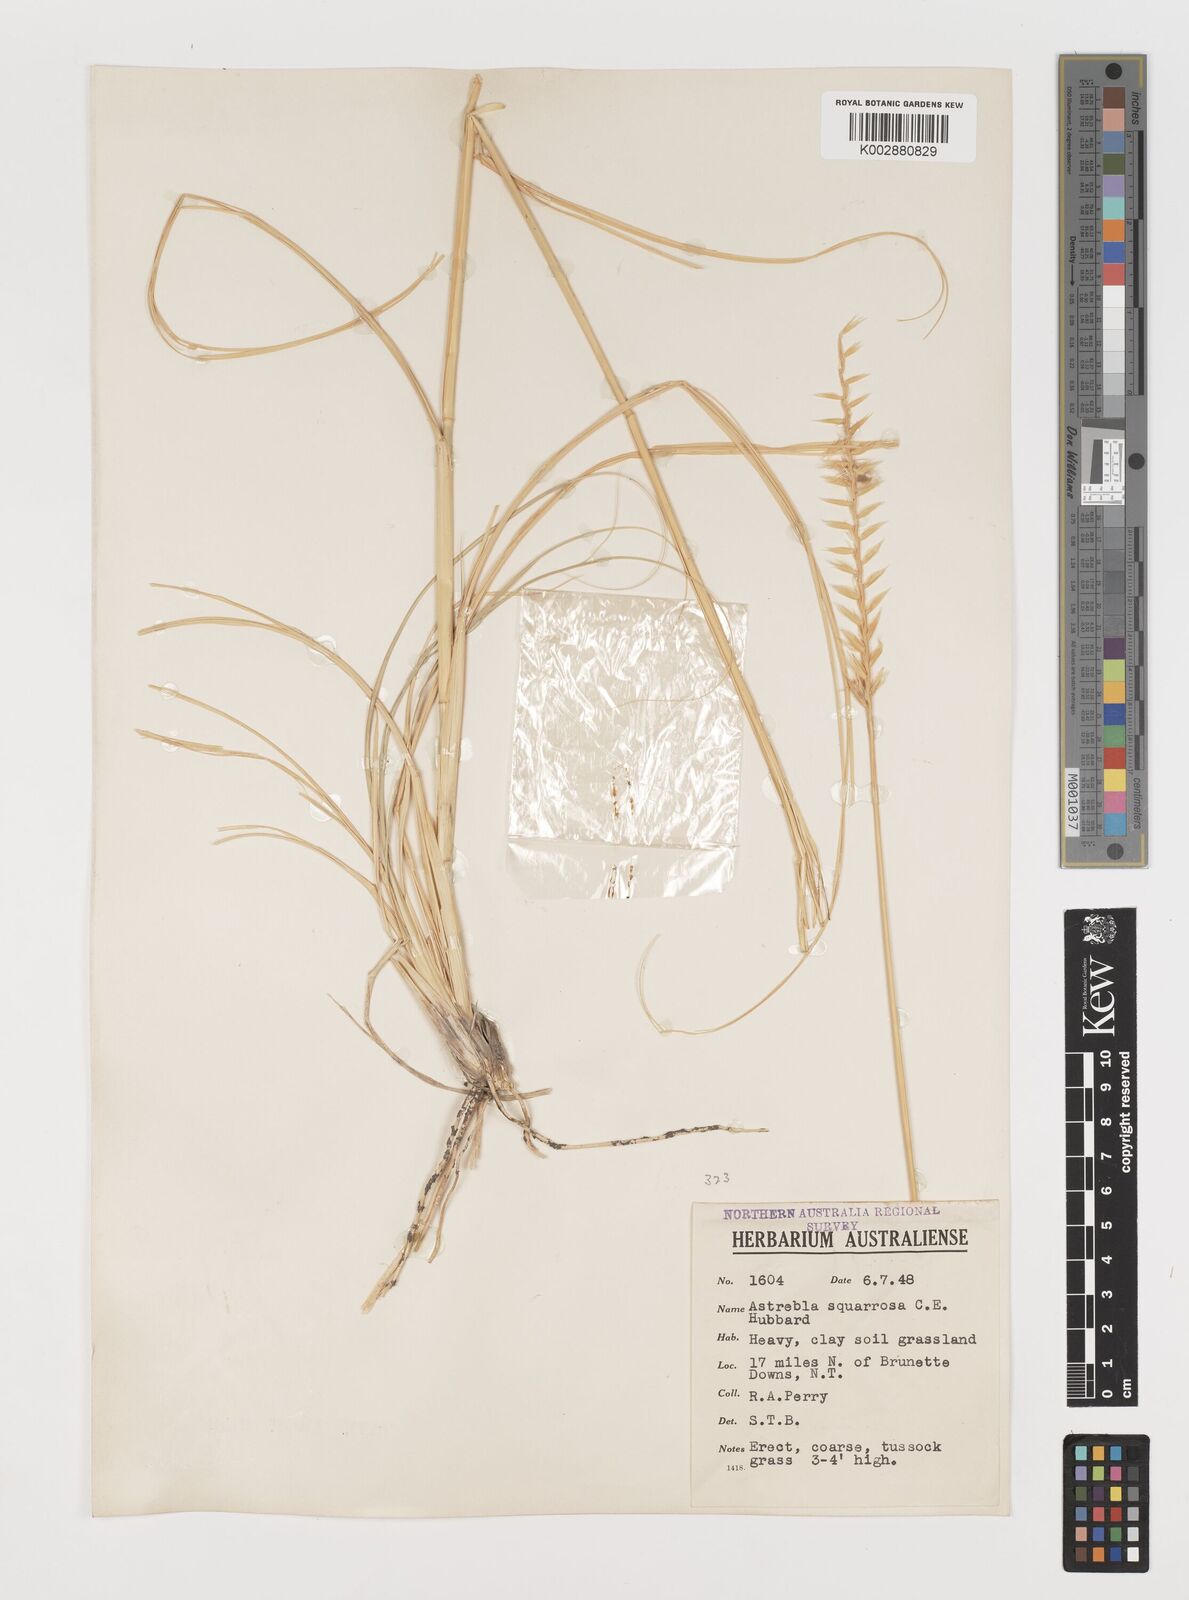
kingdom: Plantae
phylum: Tracheophyta
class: Liliopsida
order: Poales
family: Poaceae
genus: Astrebla
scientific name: Astrebla squarrosa
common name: Wheat-ear mitchell grass
